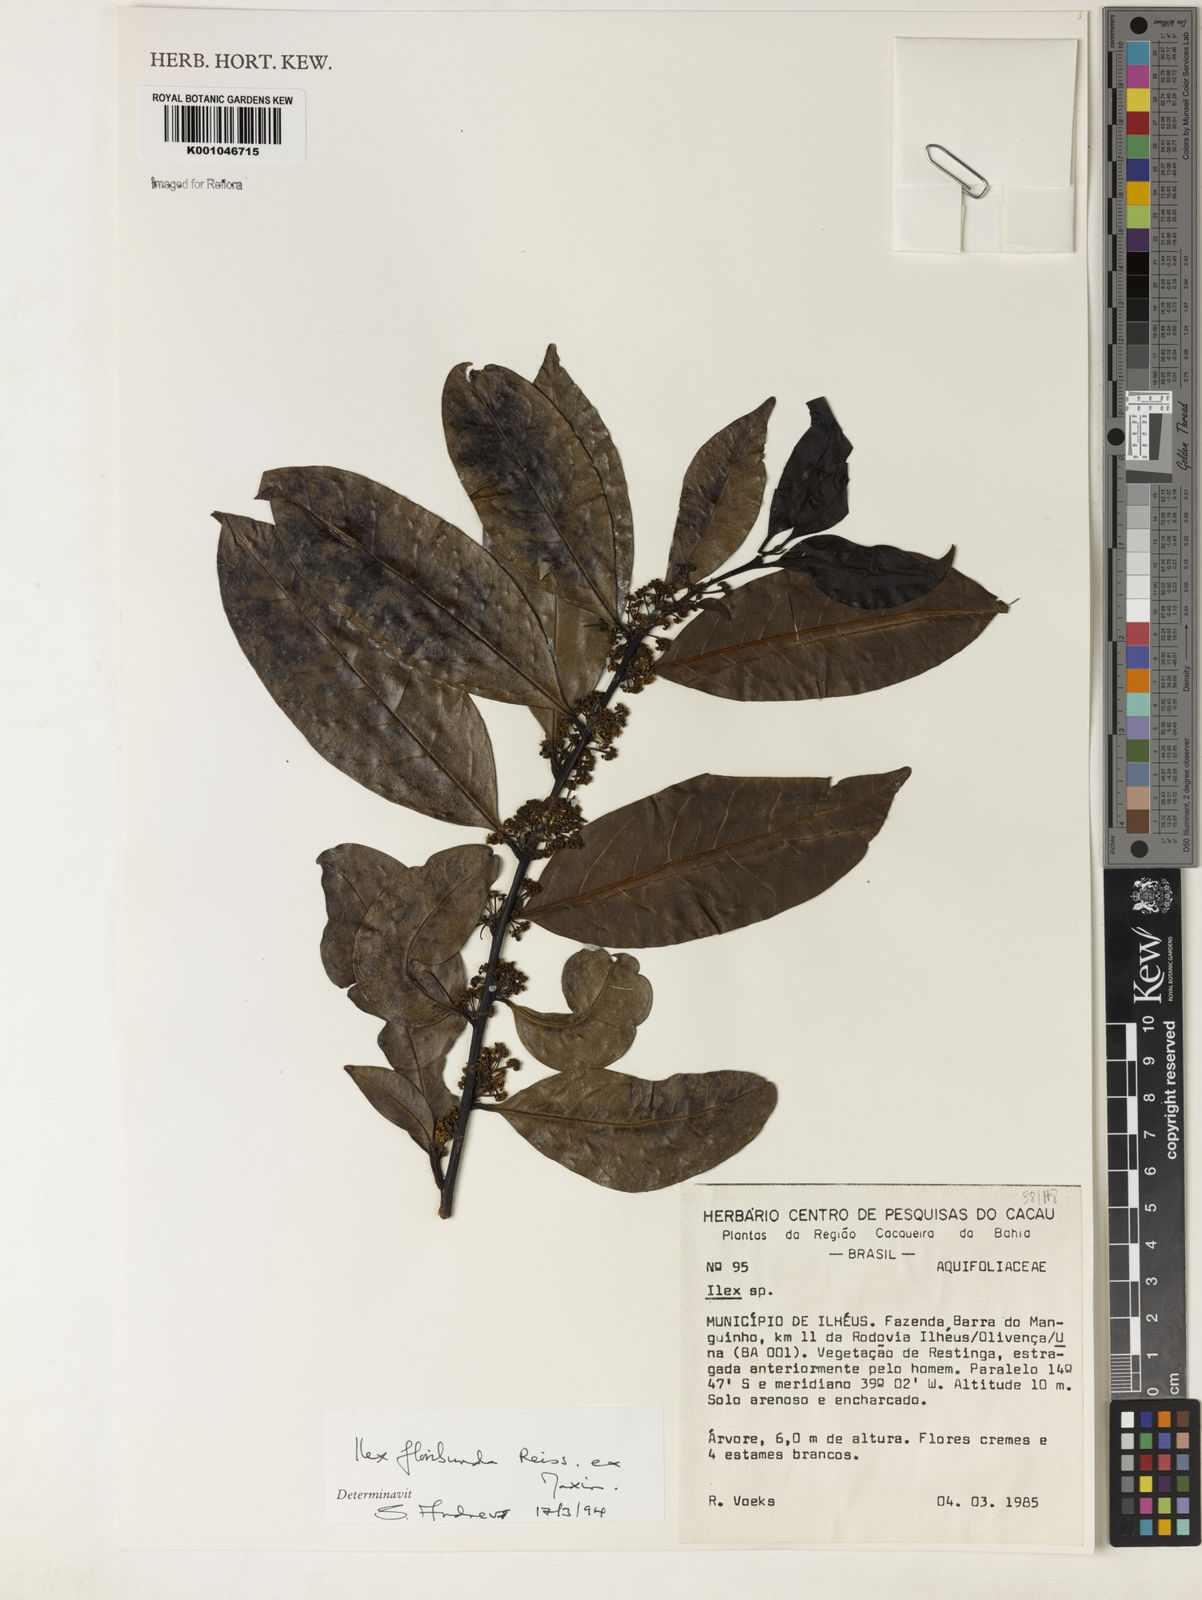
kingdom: Plantae
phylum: Tracheophyta
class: Magnoliopsida
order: Aquifoliales
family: Aquifoliaceae
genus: Ilex
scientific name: Ilex floribunda
